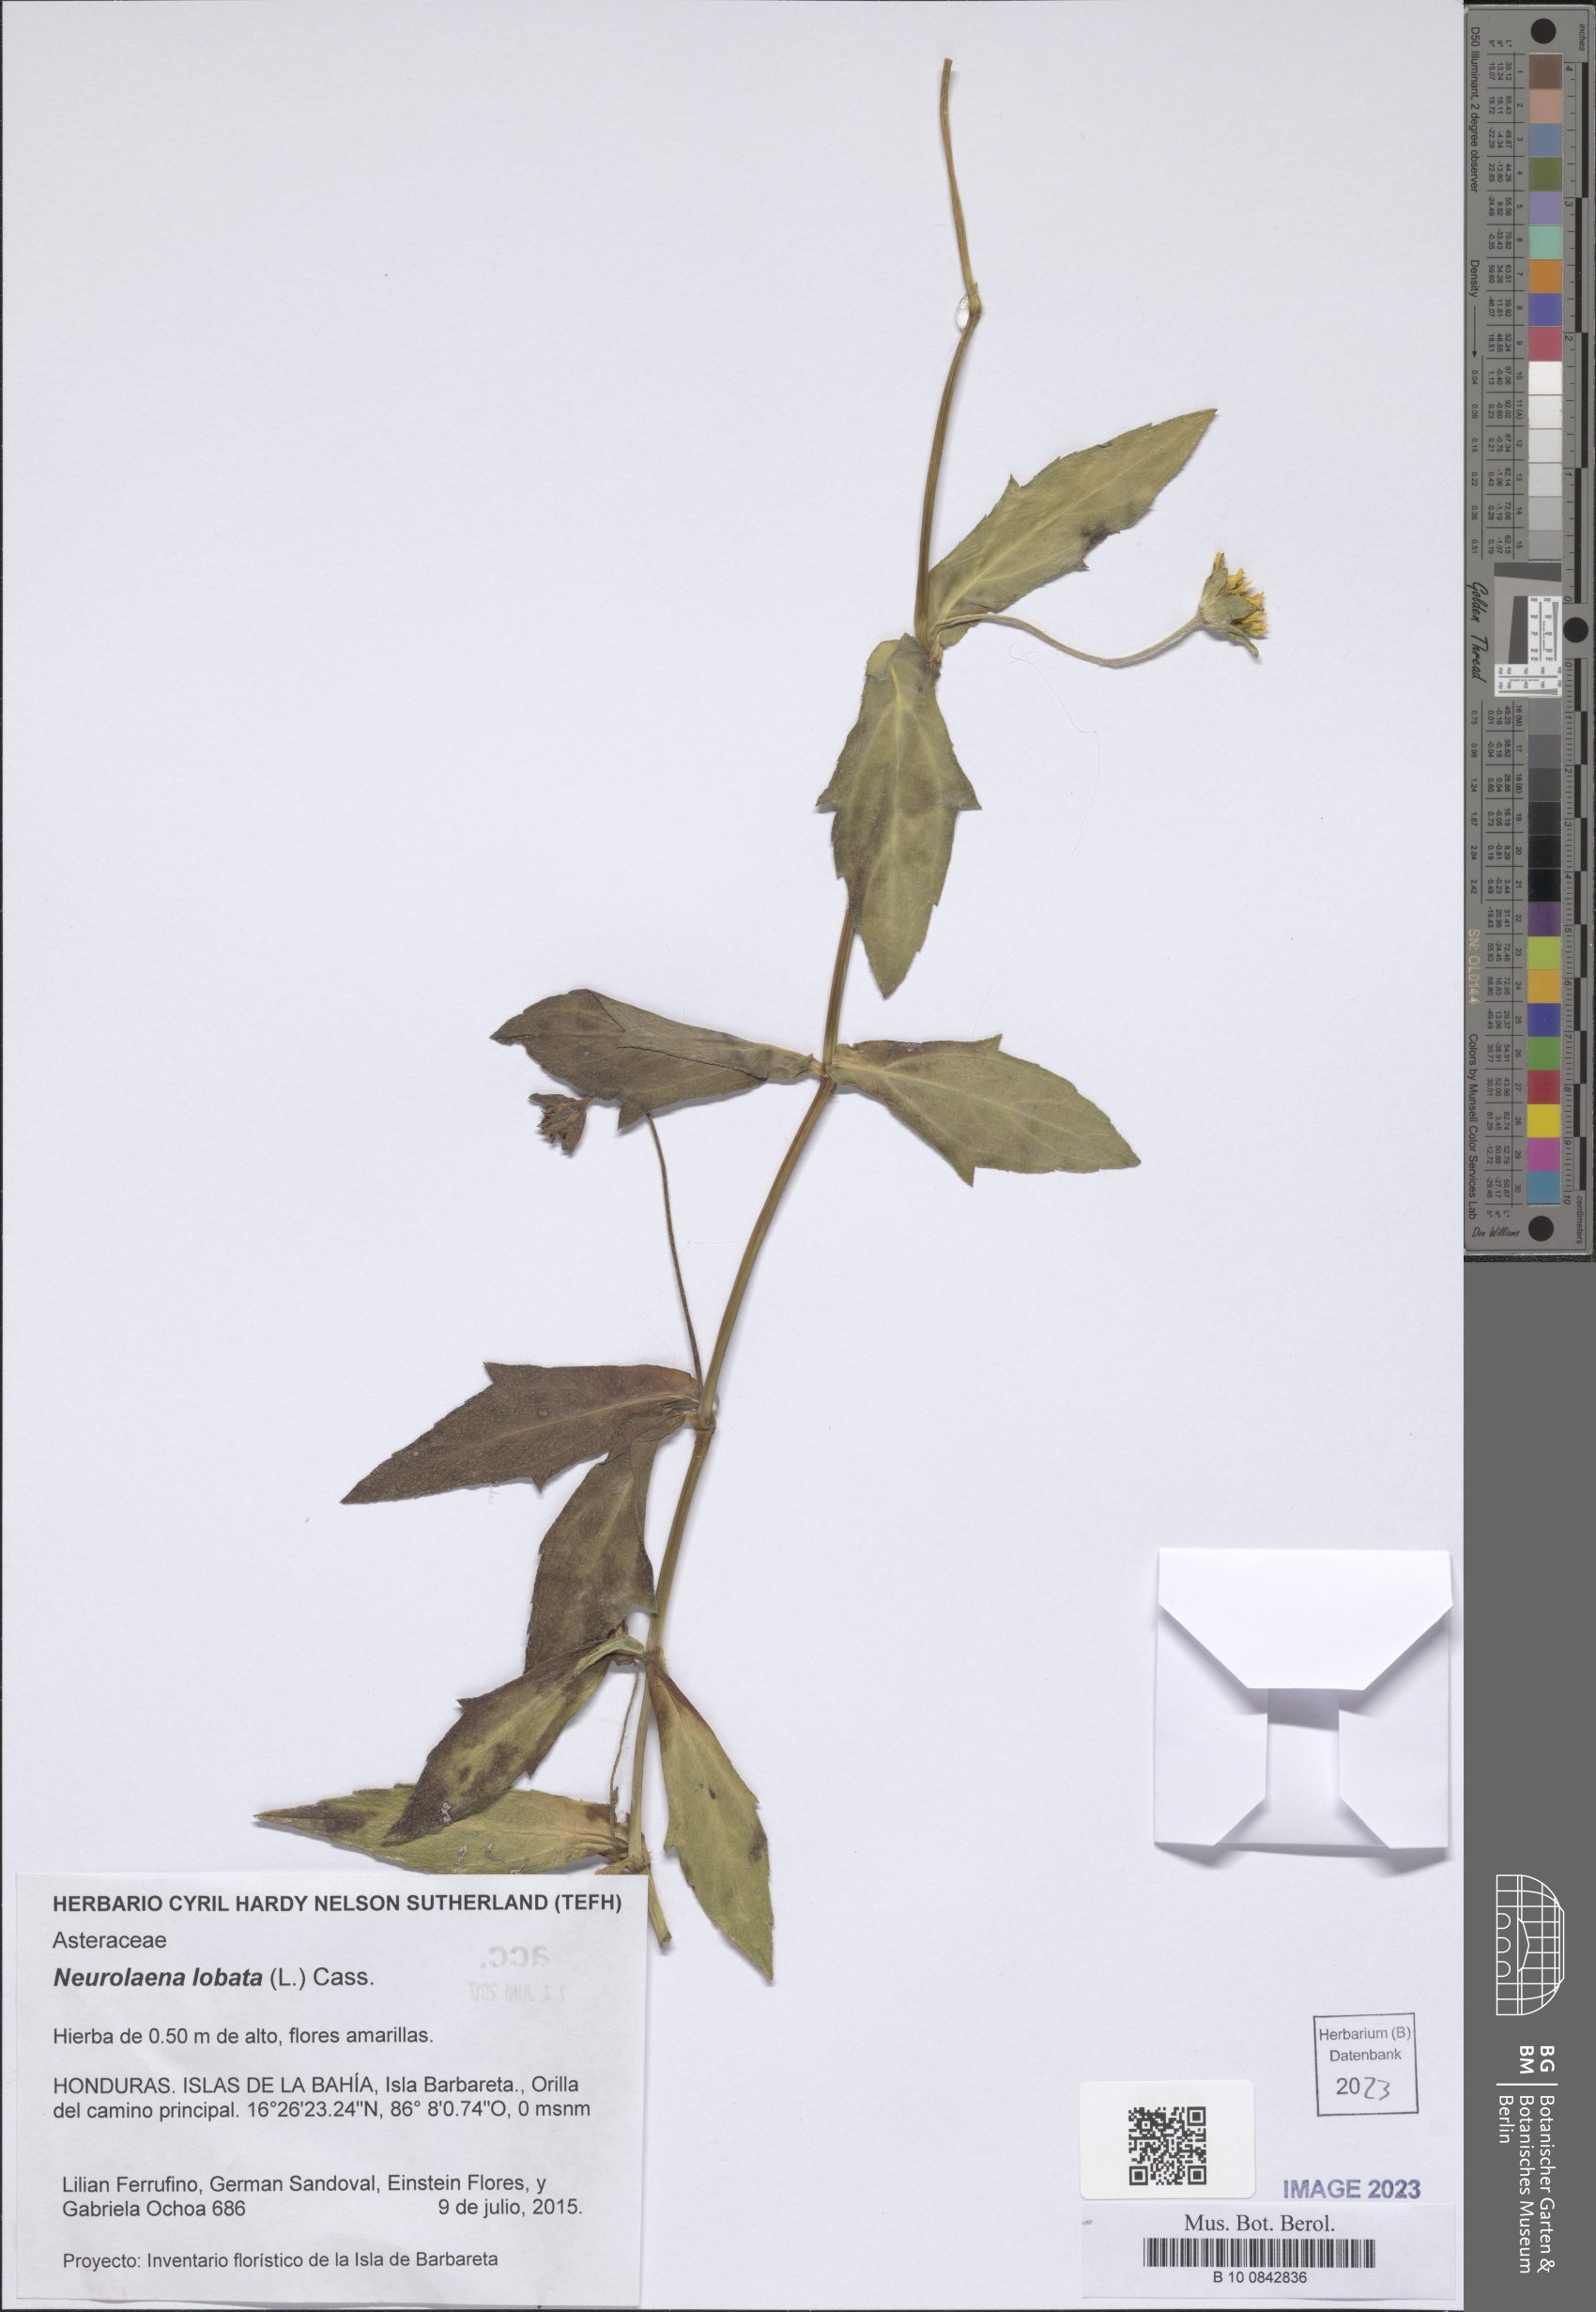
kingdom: Plantae
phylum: Tracheophyta
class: Magnoliopsida
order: Asterales
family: Asteraceae
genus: Neurolaena
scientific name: Neurolaena lobata
